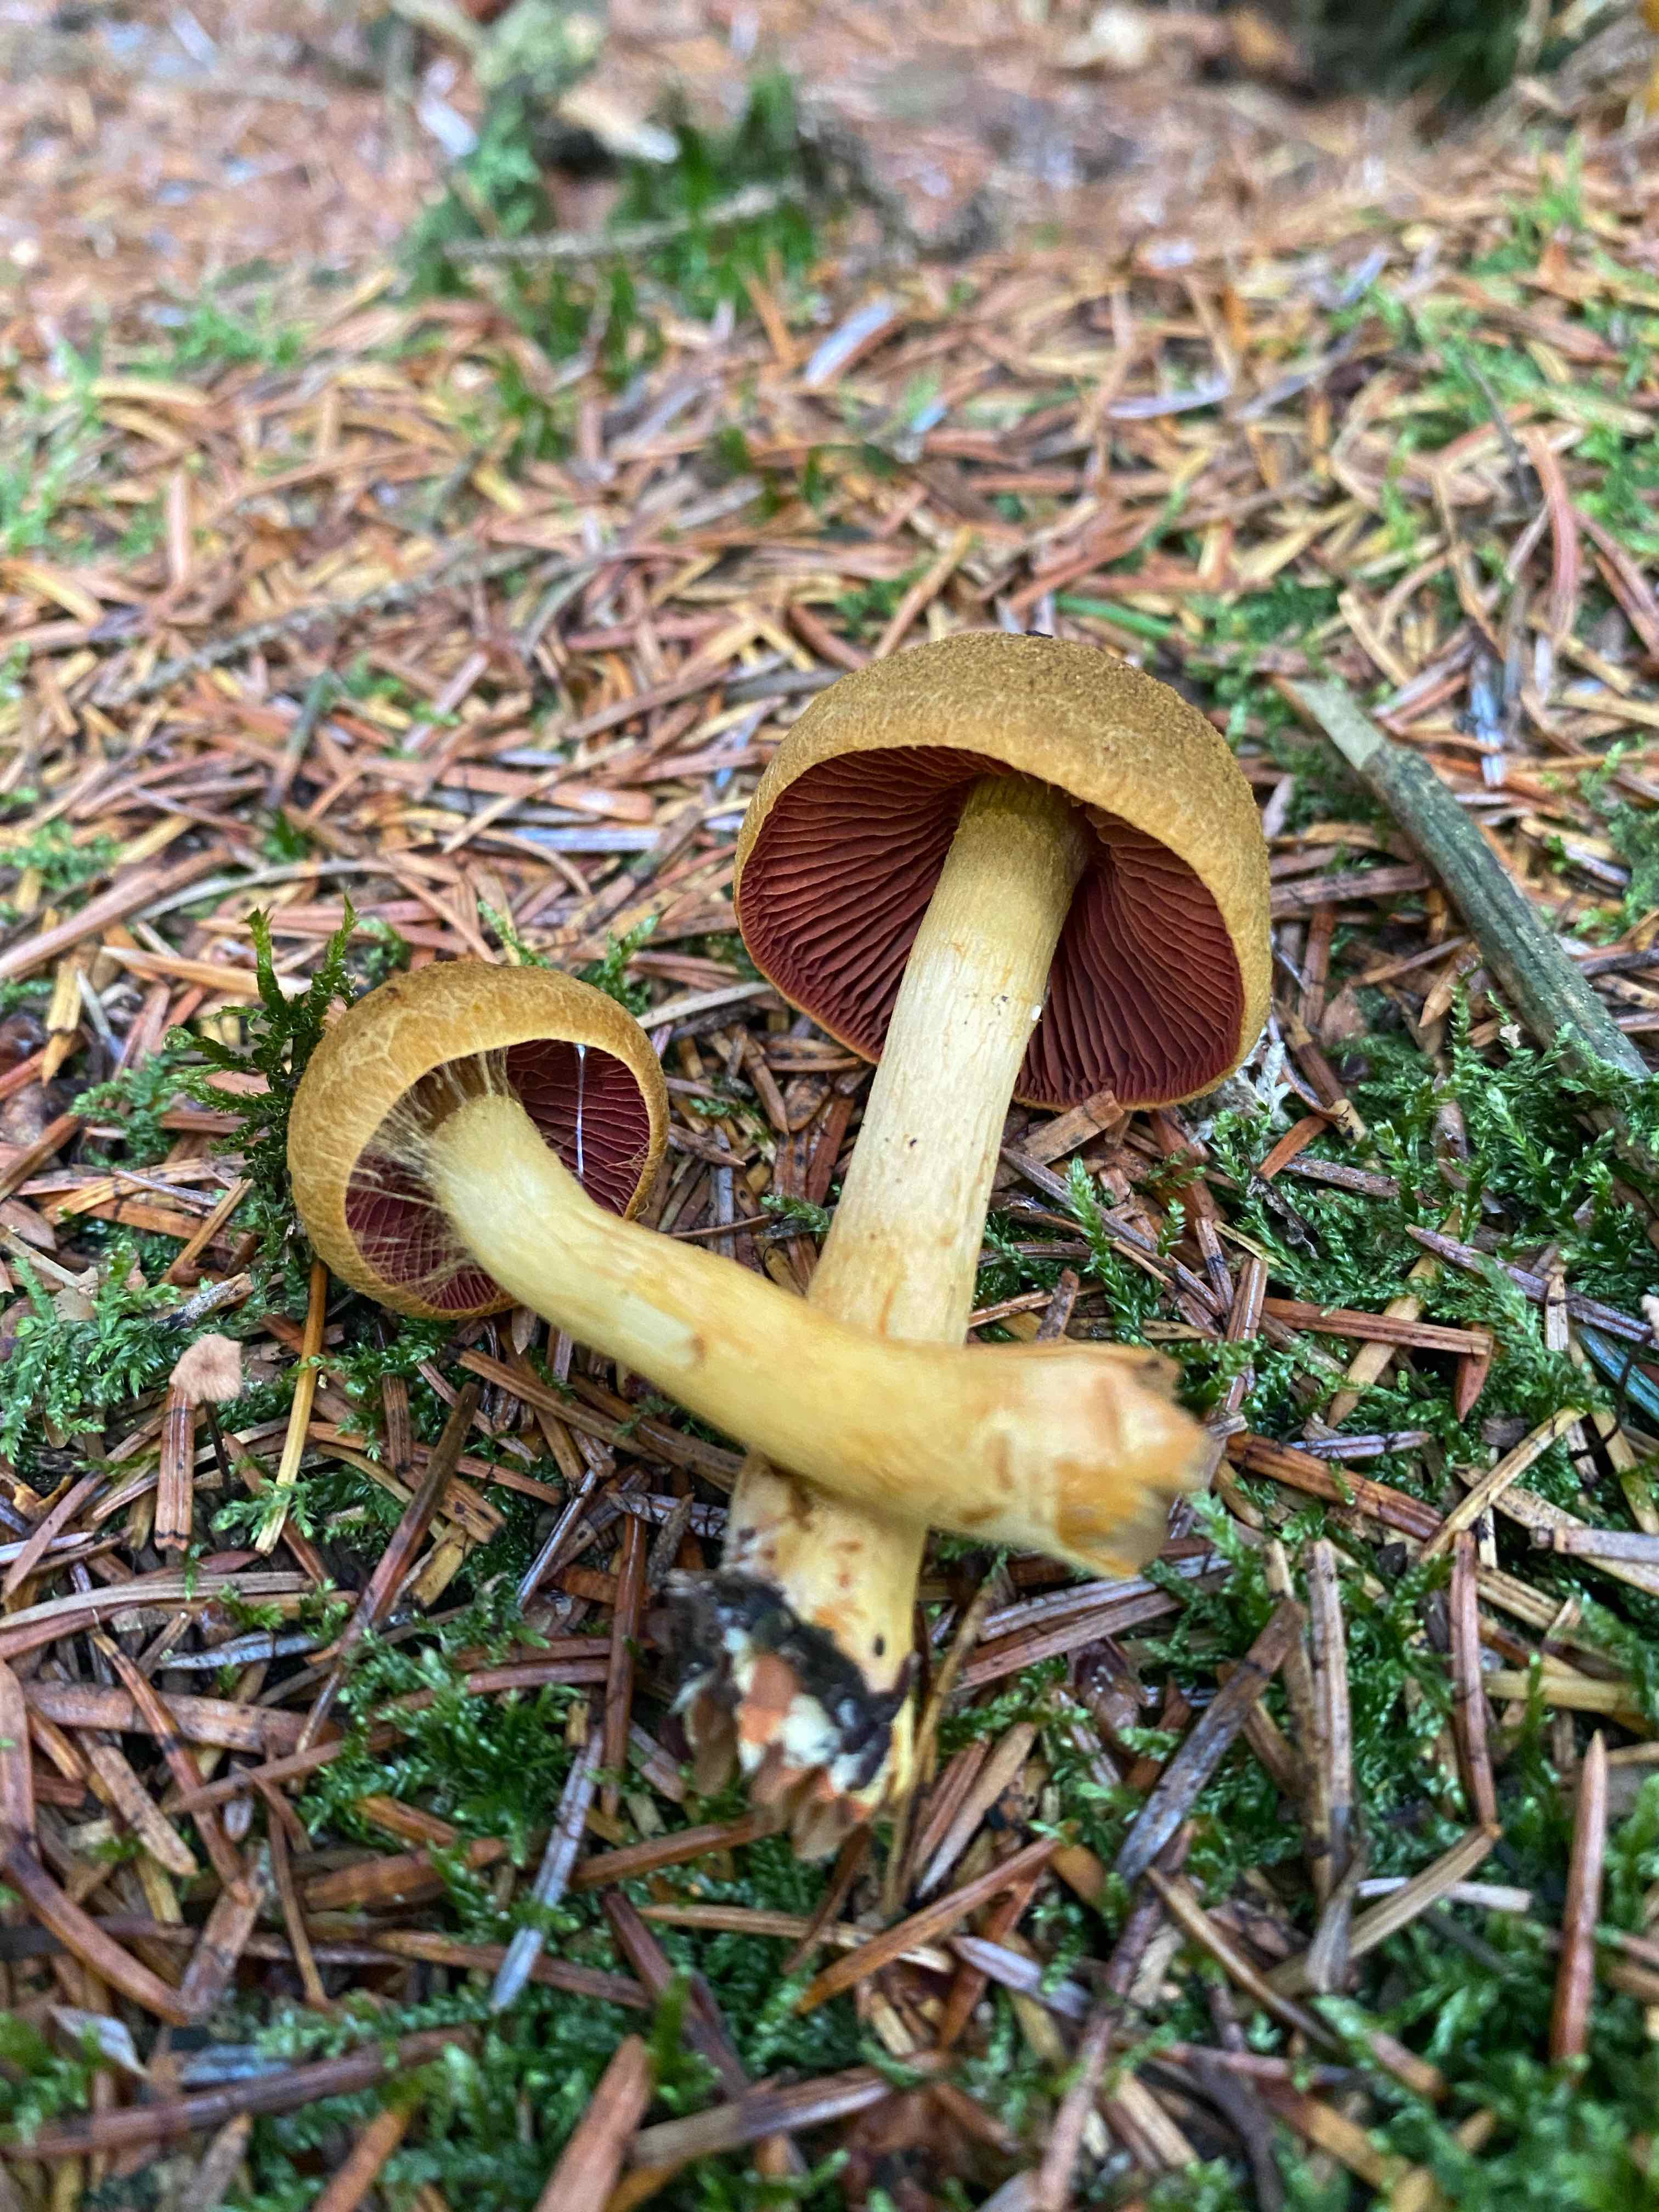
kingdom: Fungi
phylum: Basidiomycota
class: Agaricomycetes
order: Agaricales
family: Cortinariaceae
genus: Cortinarius
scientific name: Cortinarius
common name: cinnoberbladet slørhat
